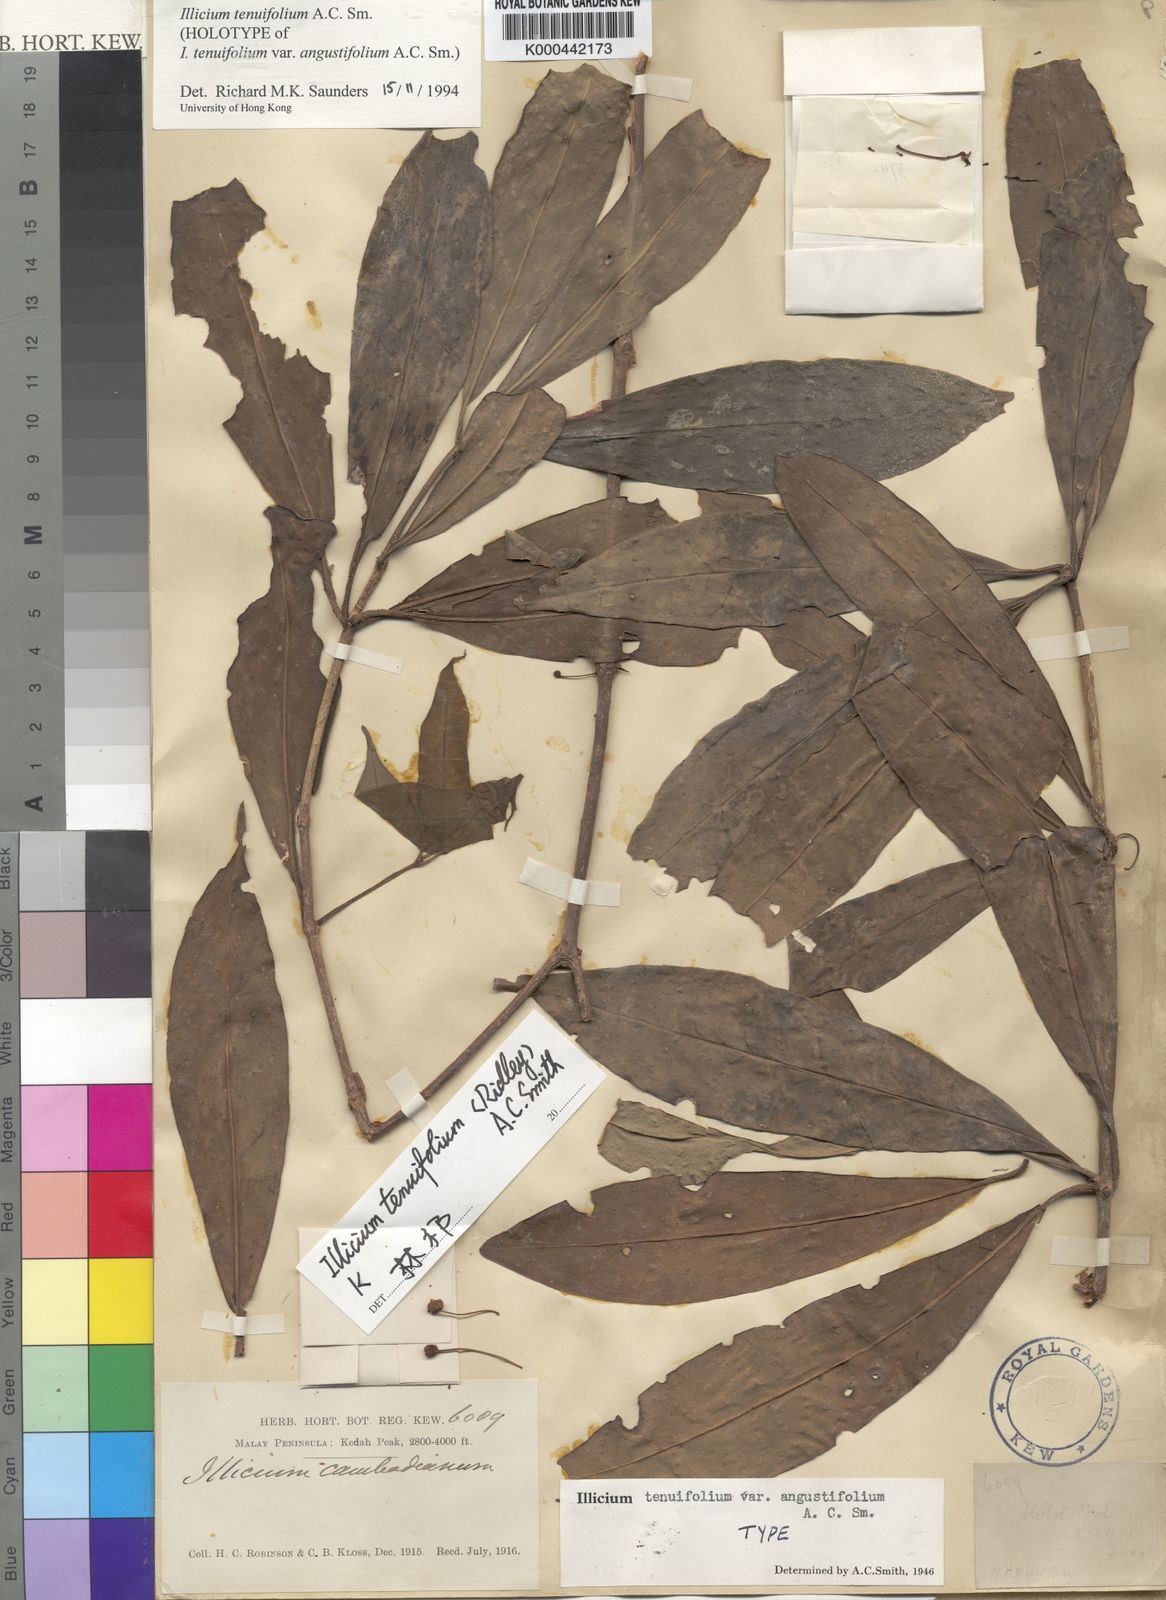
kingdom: Plantae
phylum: Tracheophyta
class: Magnoliopsida
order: Austrobaileyales
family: Schisandraceae
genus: Illicium
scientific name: Illicium tenuifolium
